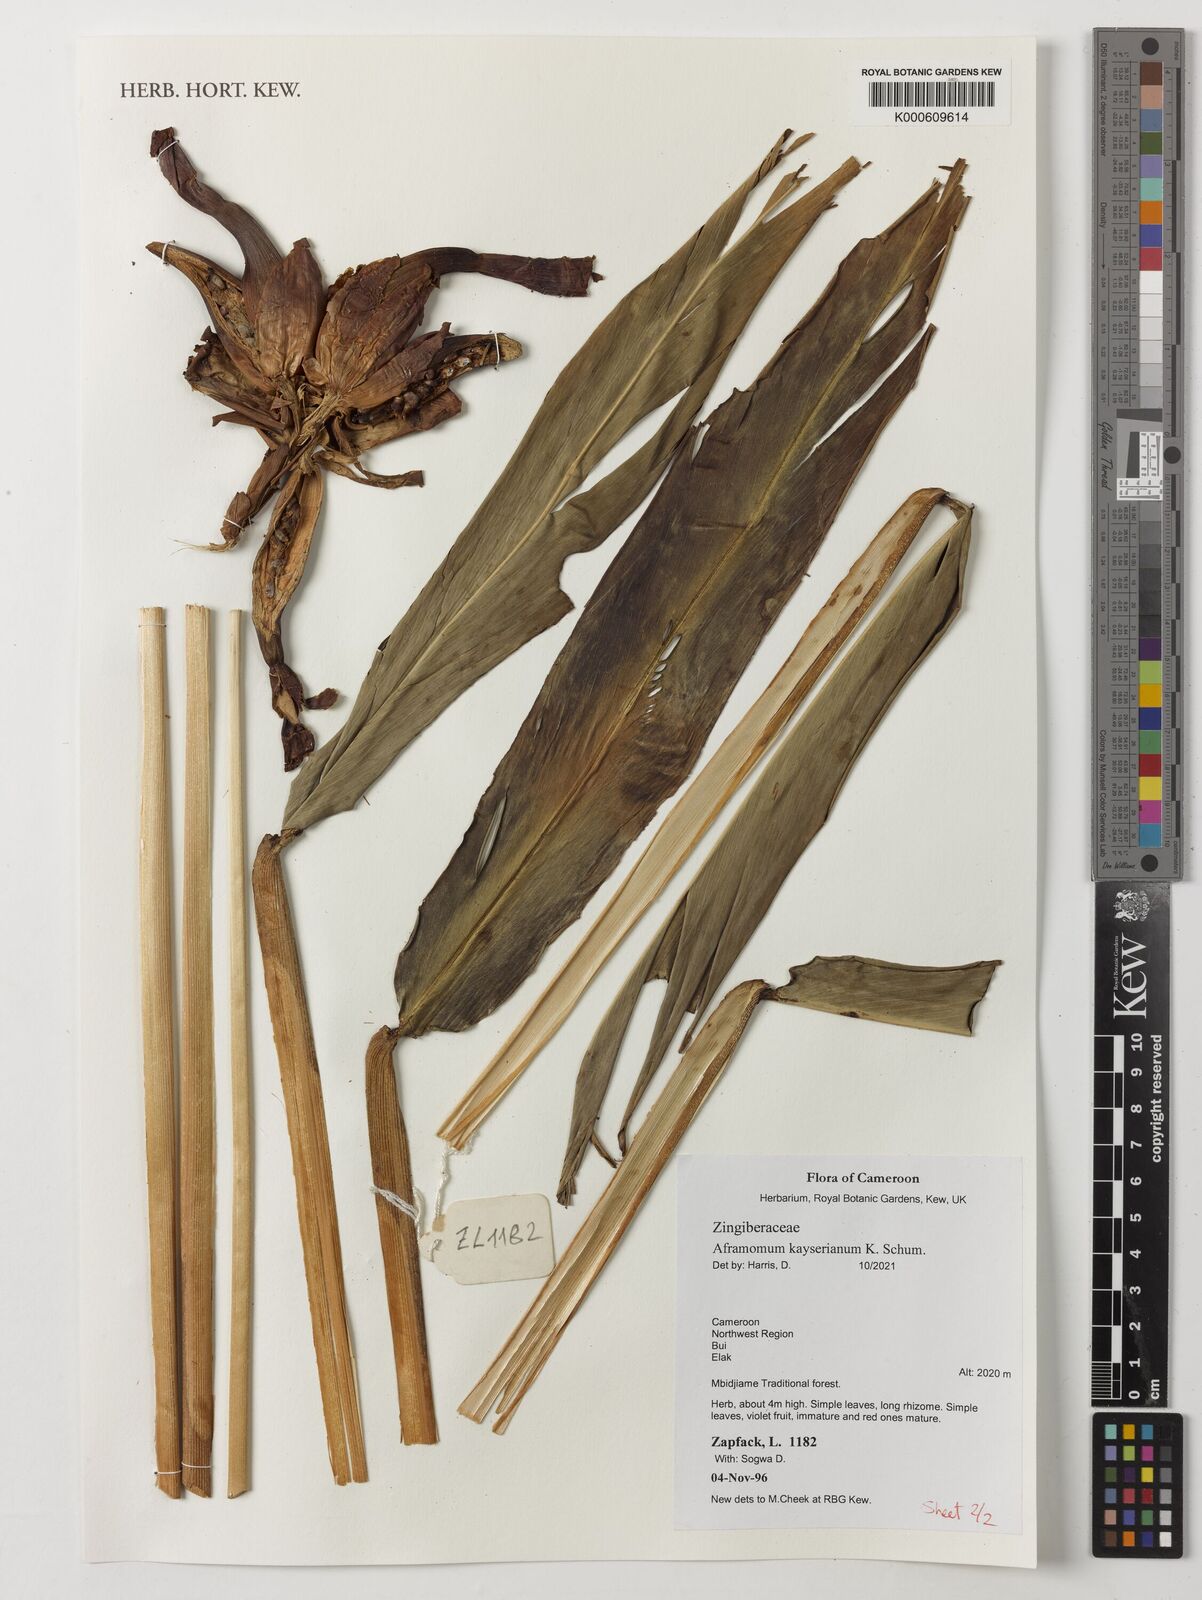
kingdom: Plantae
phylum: Tracheophyta
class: Liliopsida
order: Zingiberales
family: Zingiberaceae
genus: Aframomum
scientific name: Aframomum kayserianum
